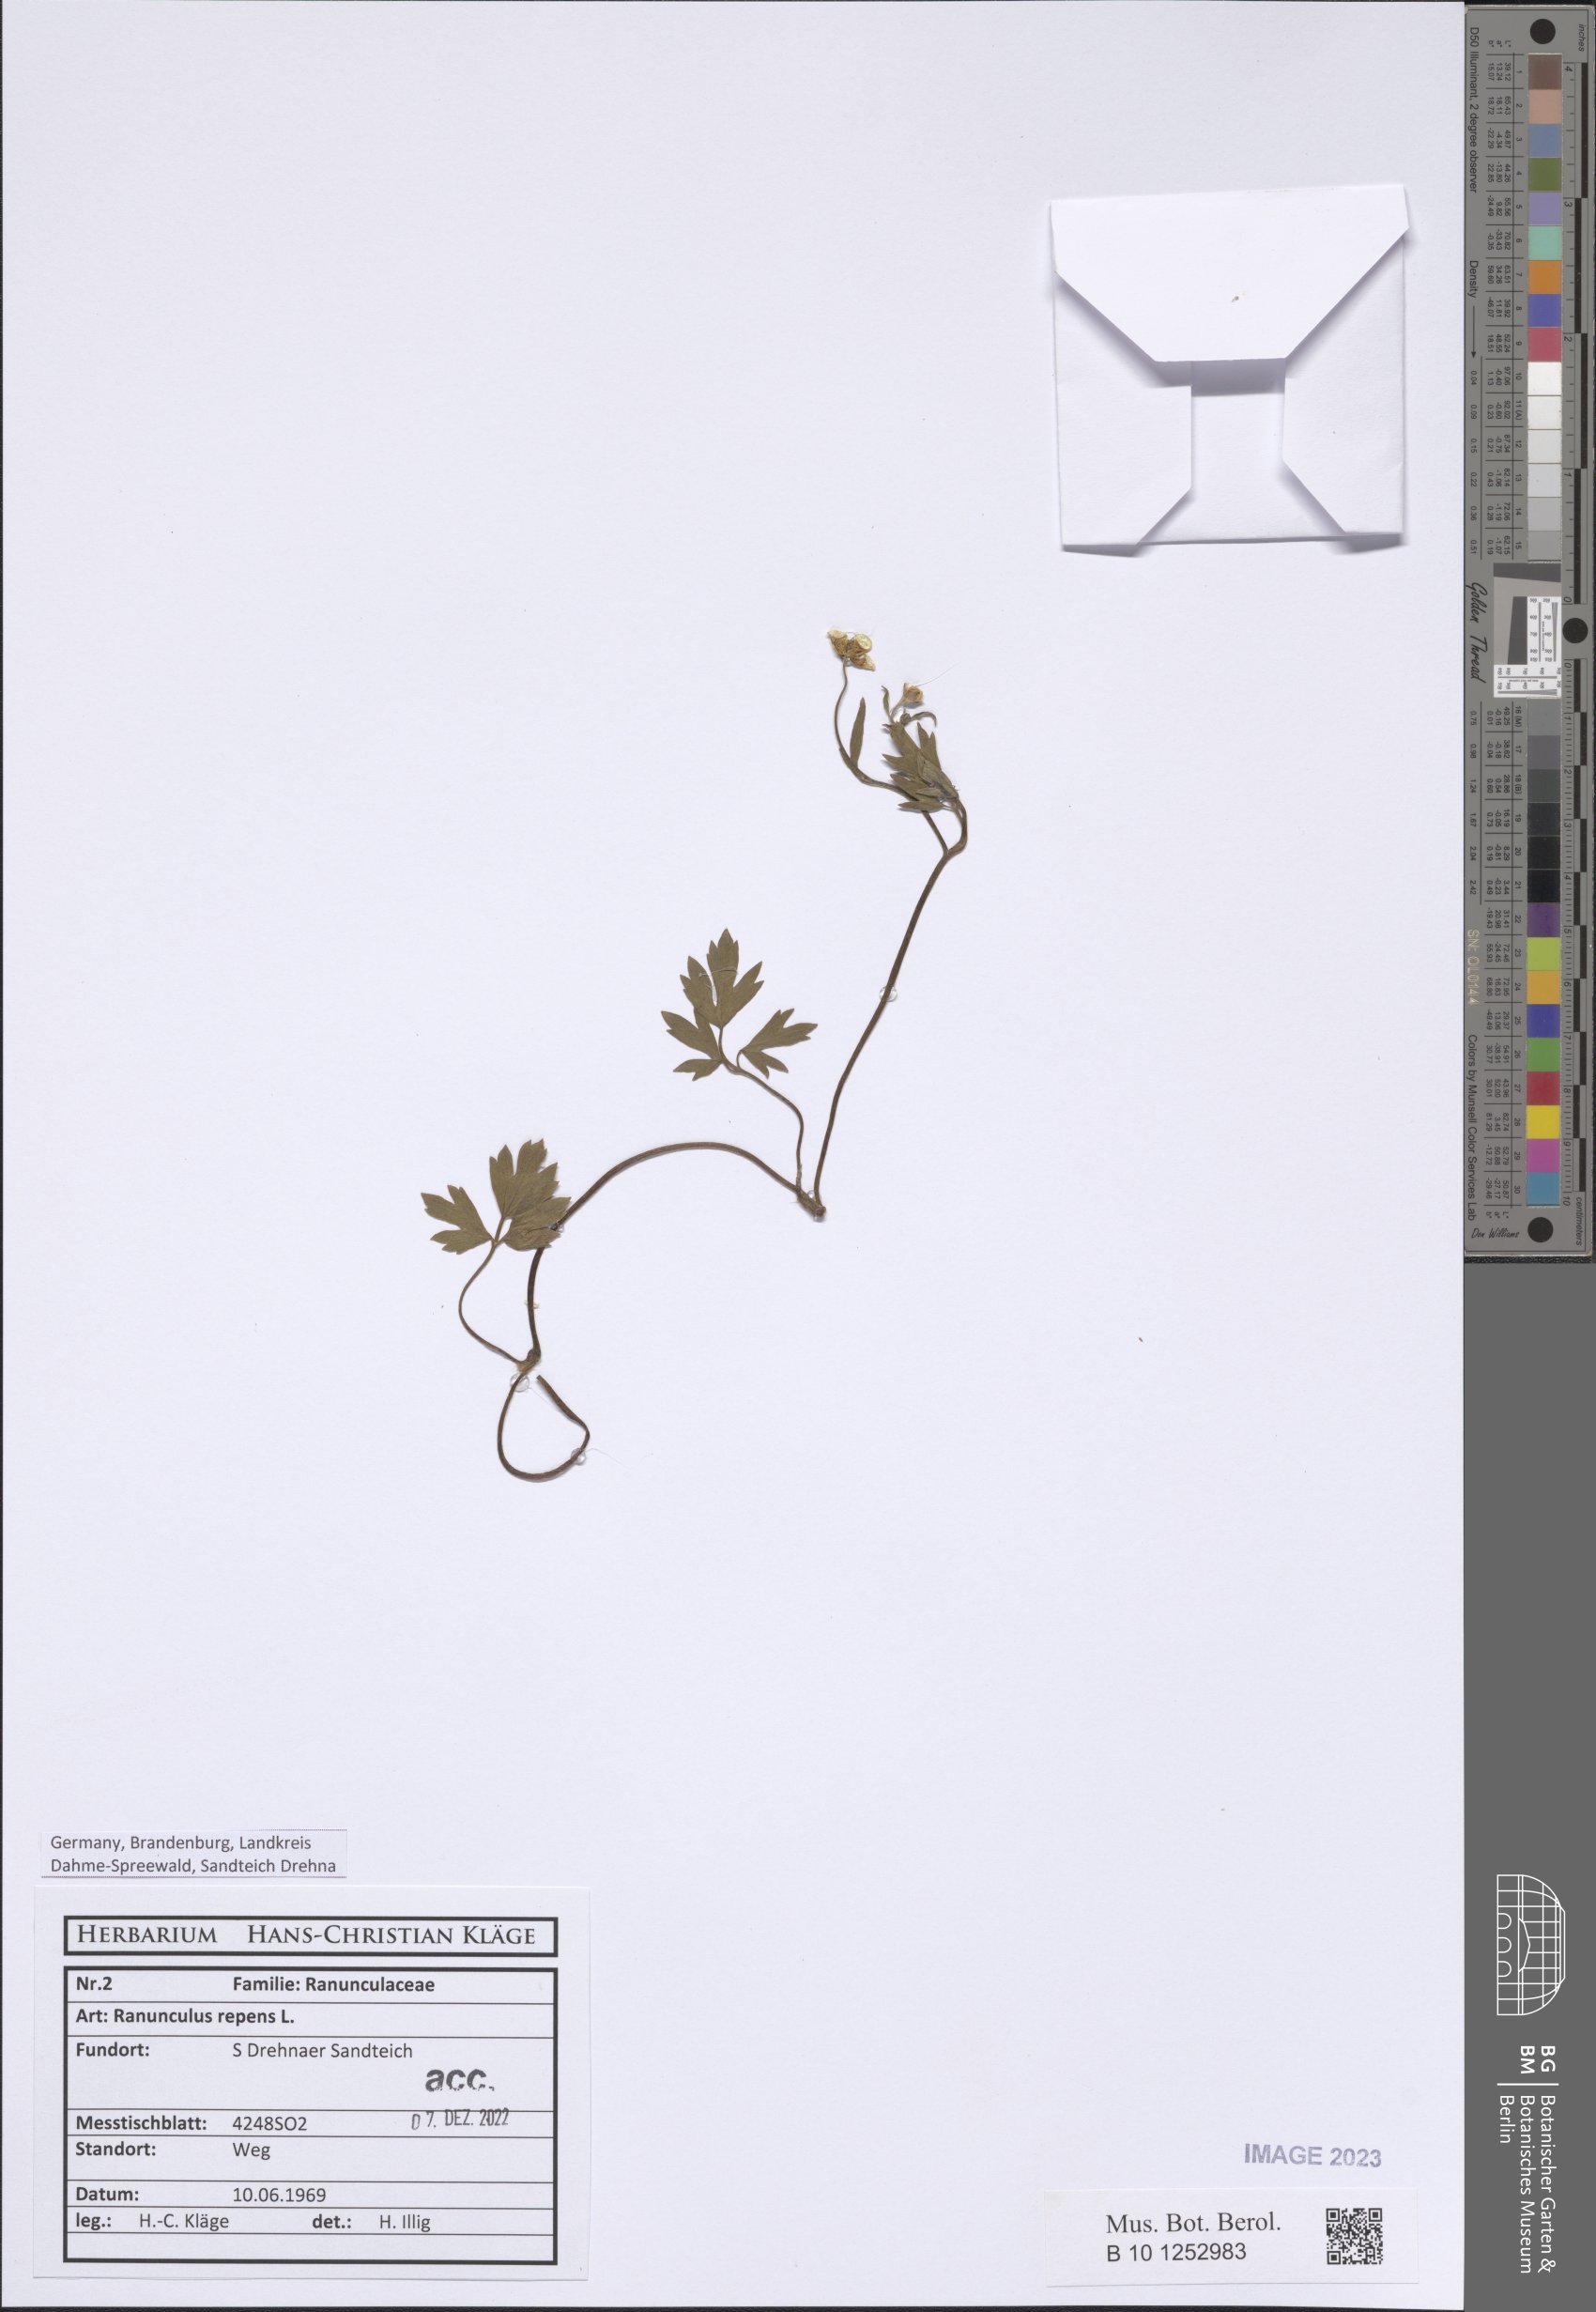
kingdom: Plantae
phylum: Tracheophyta
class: Magnoliopsida
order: Ranunculales
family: Ranunculaceae
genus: Ranunculus
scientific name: Ranunculus repens
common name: Creeping buttercup
